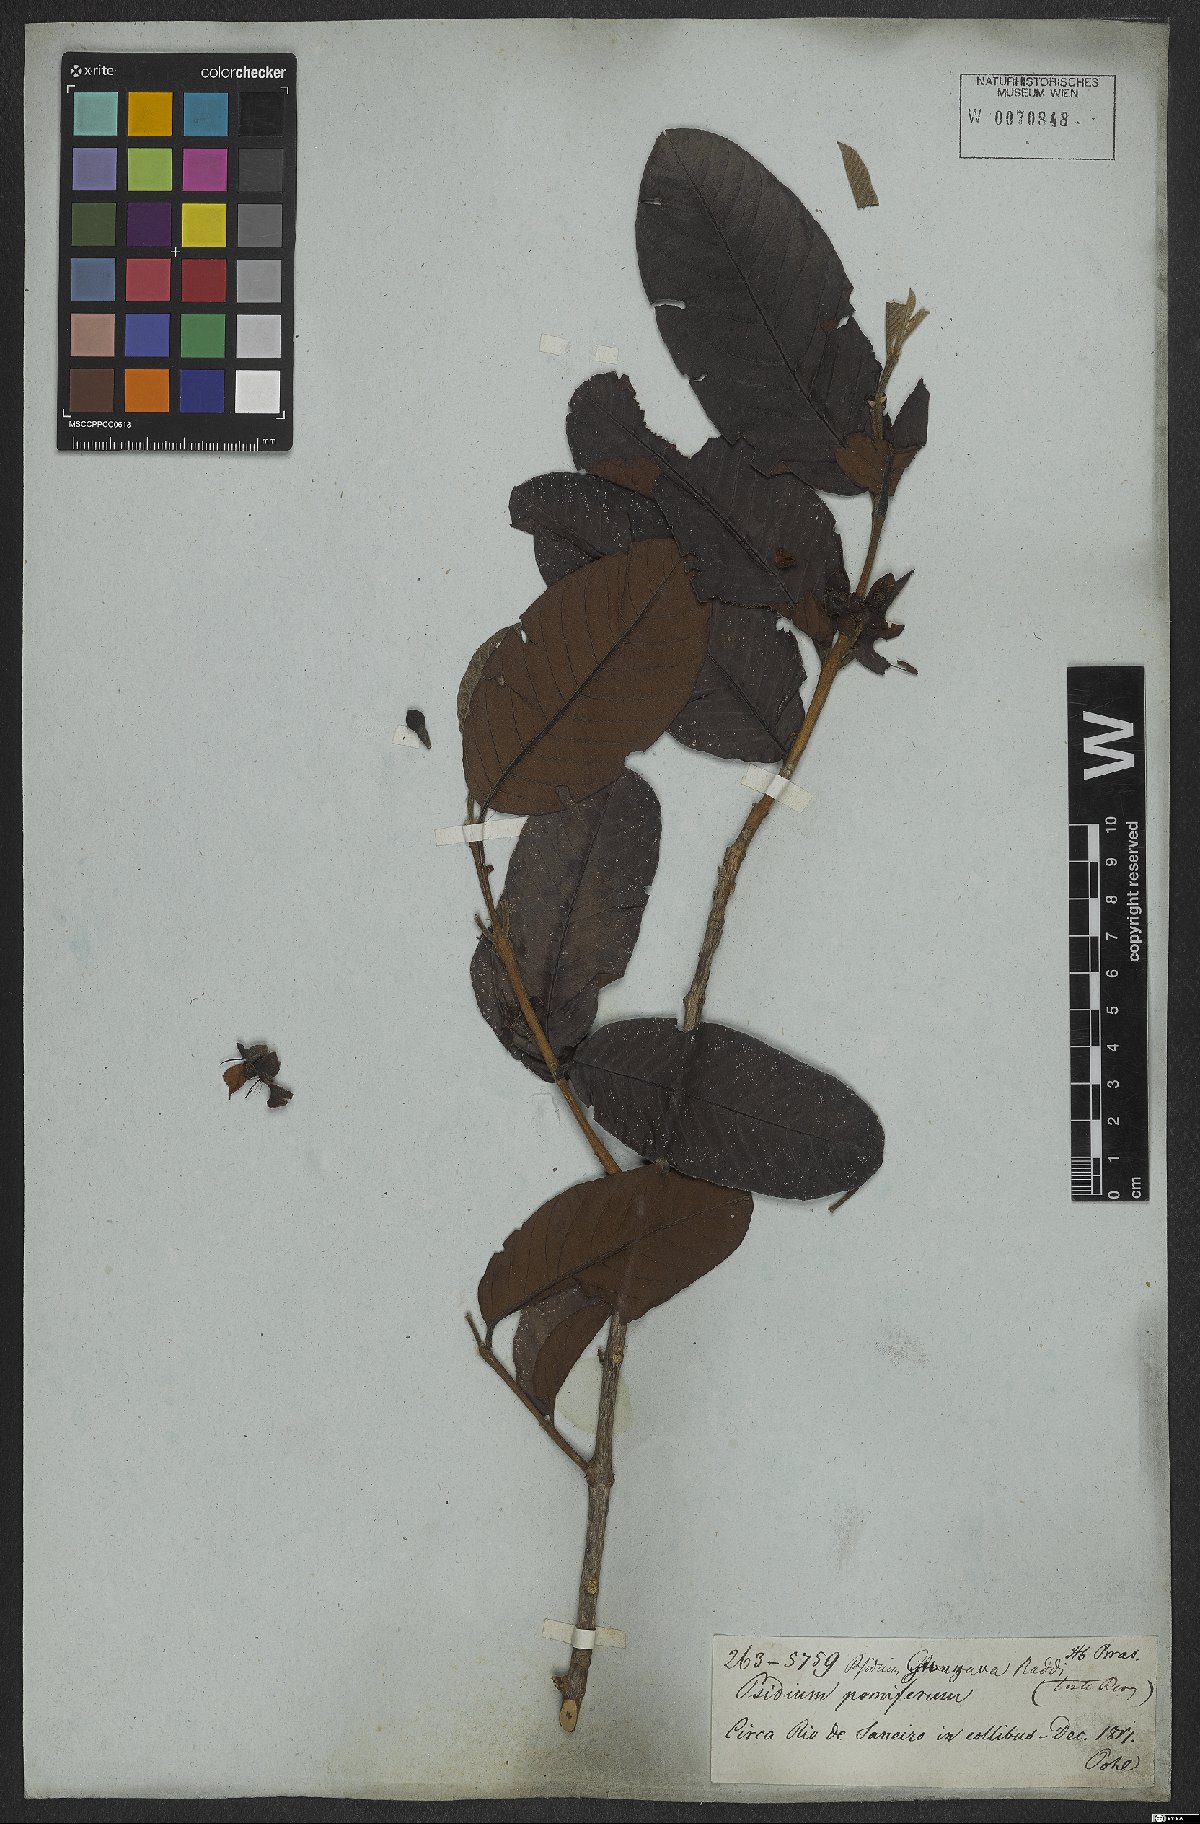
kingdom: Plantae
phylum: Tracheophyta
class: Magnoliopsida
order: Myrtales
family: Myrtaceae
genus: Psidium
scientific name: Psidium guajava
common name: Guava
